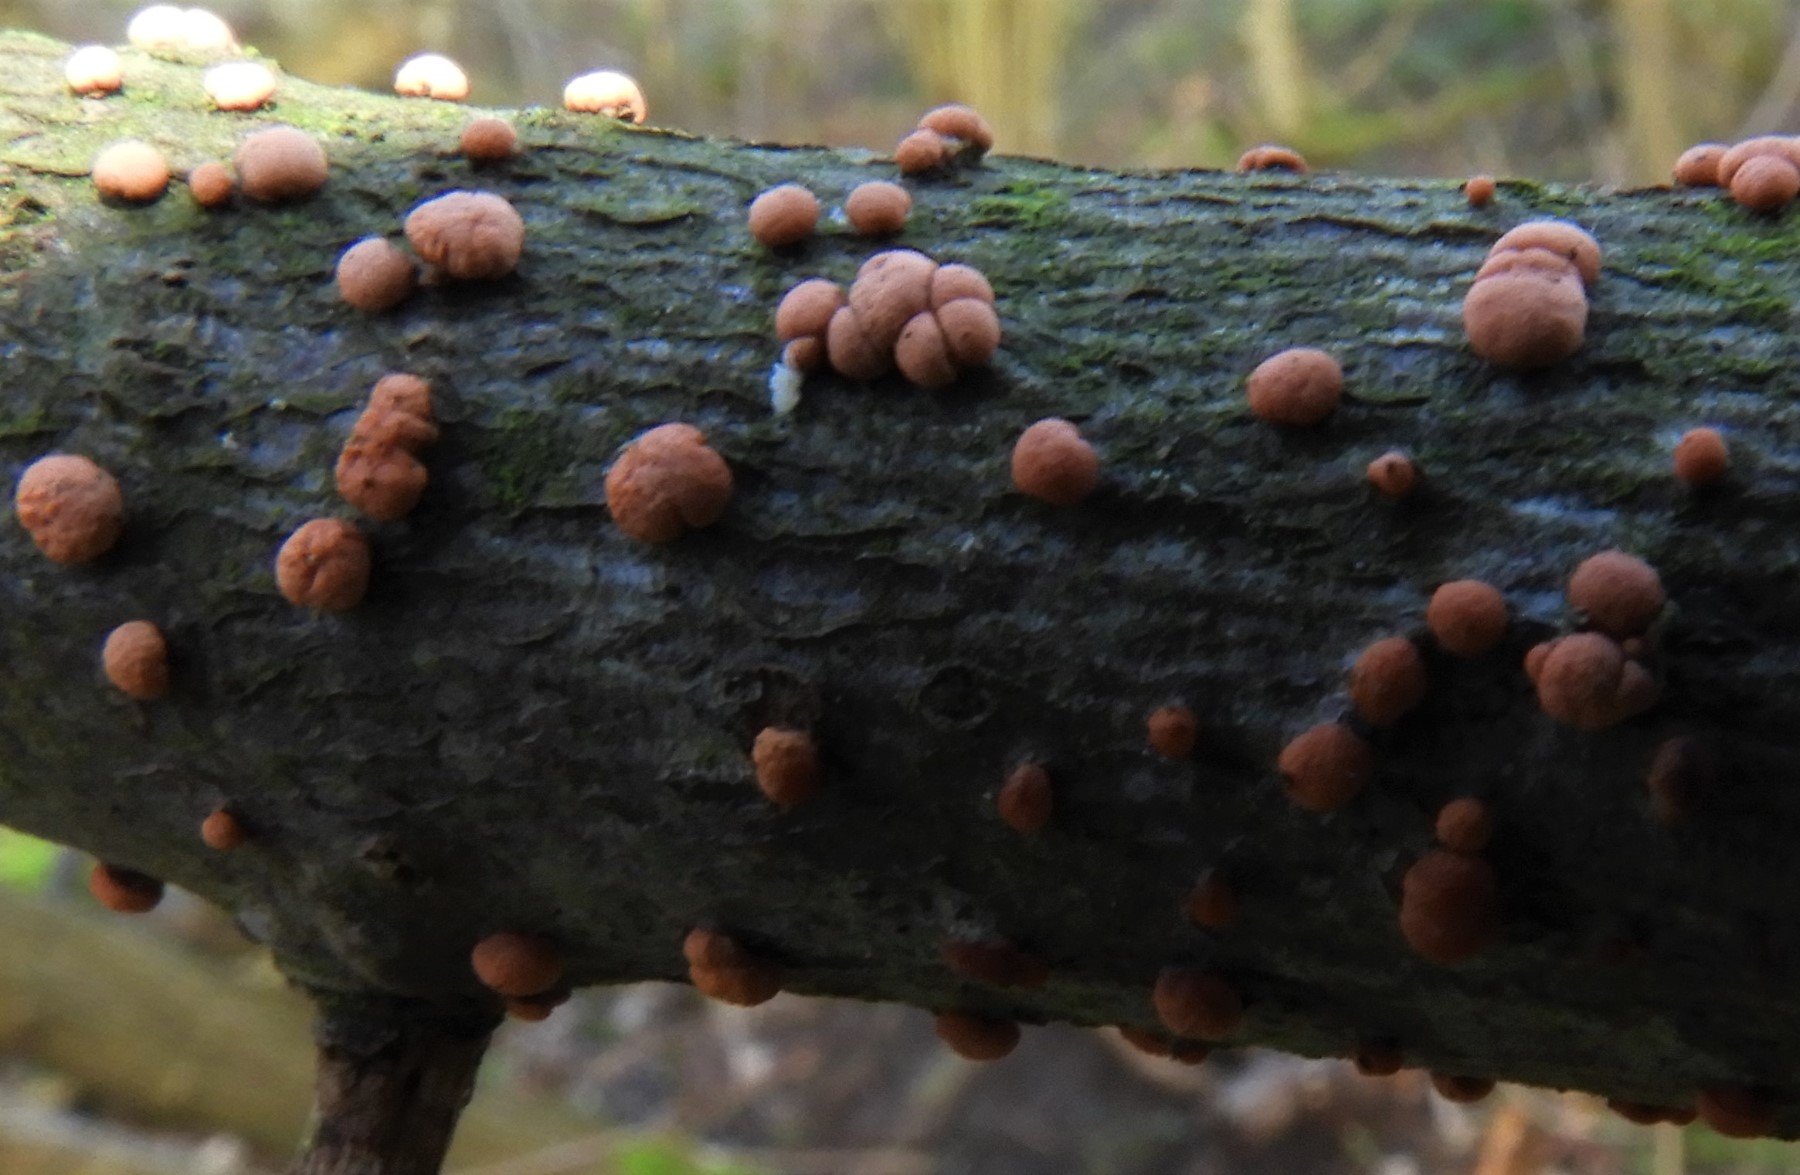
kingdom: Fungi
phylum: Ascomycota
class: Sordariomycetes
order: Hypocreales
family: Nectriaceae
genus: Nectria
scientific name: Nectria cinnabarina
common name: almindelig cinnobersvamp
